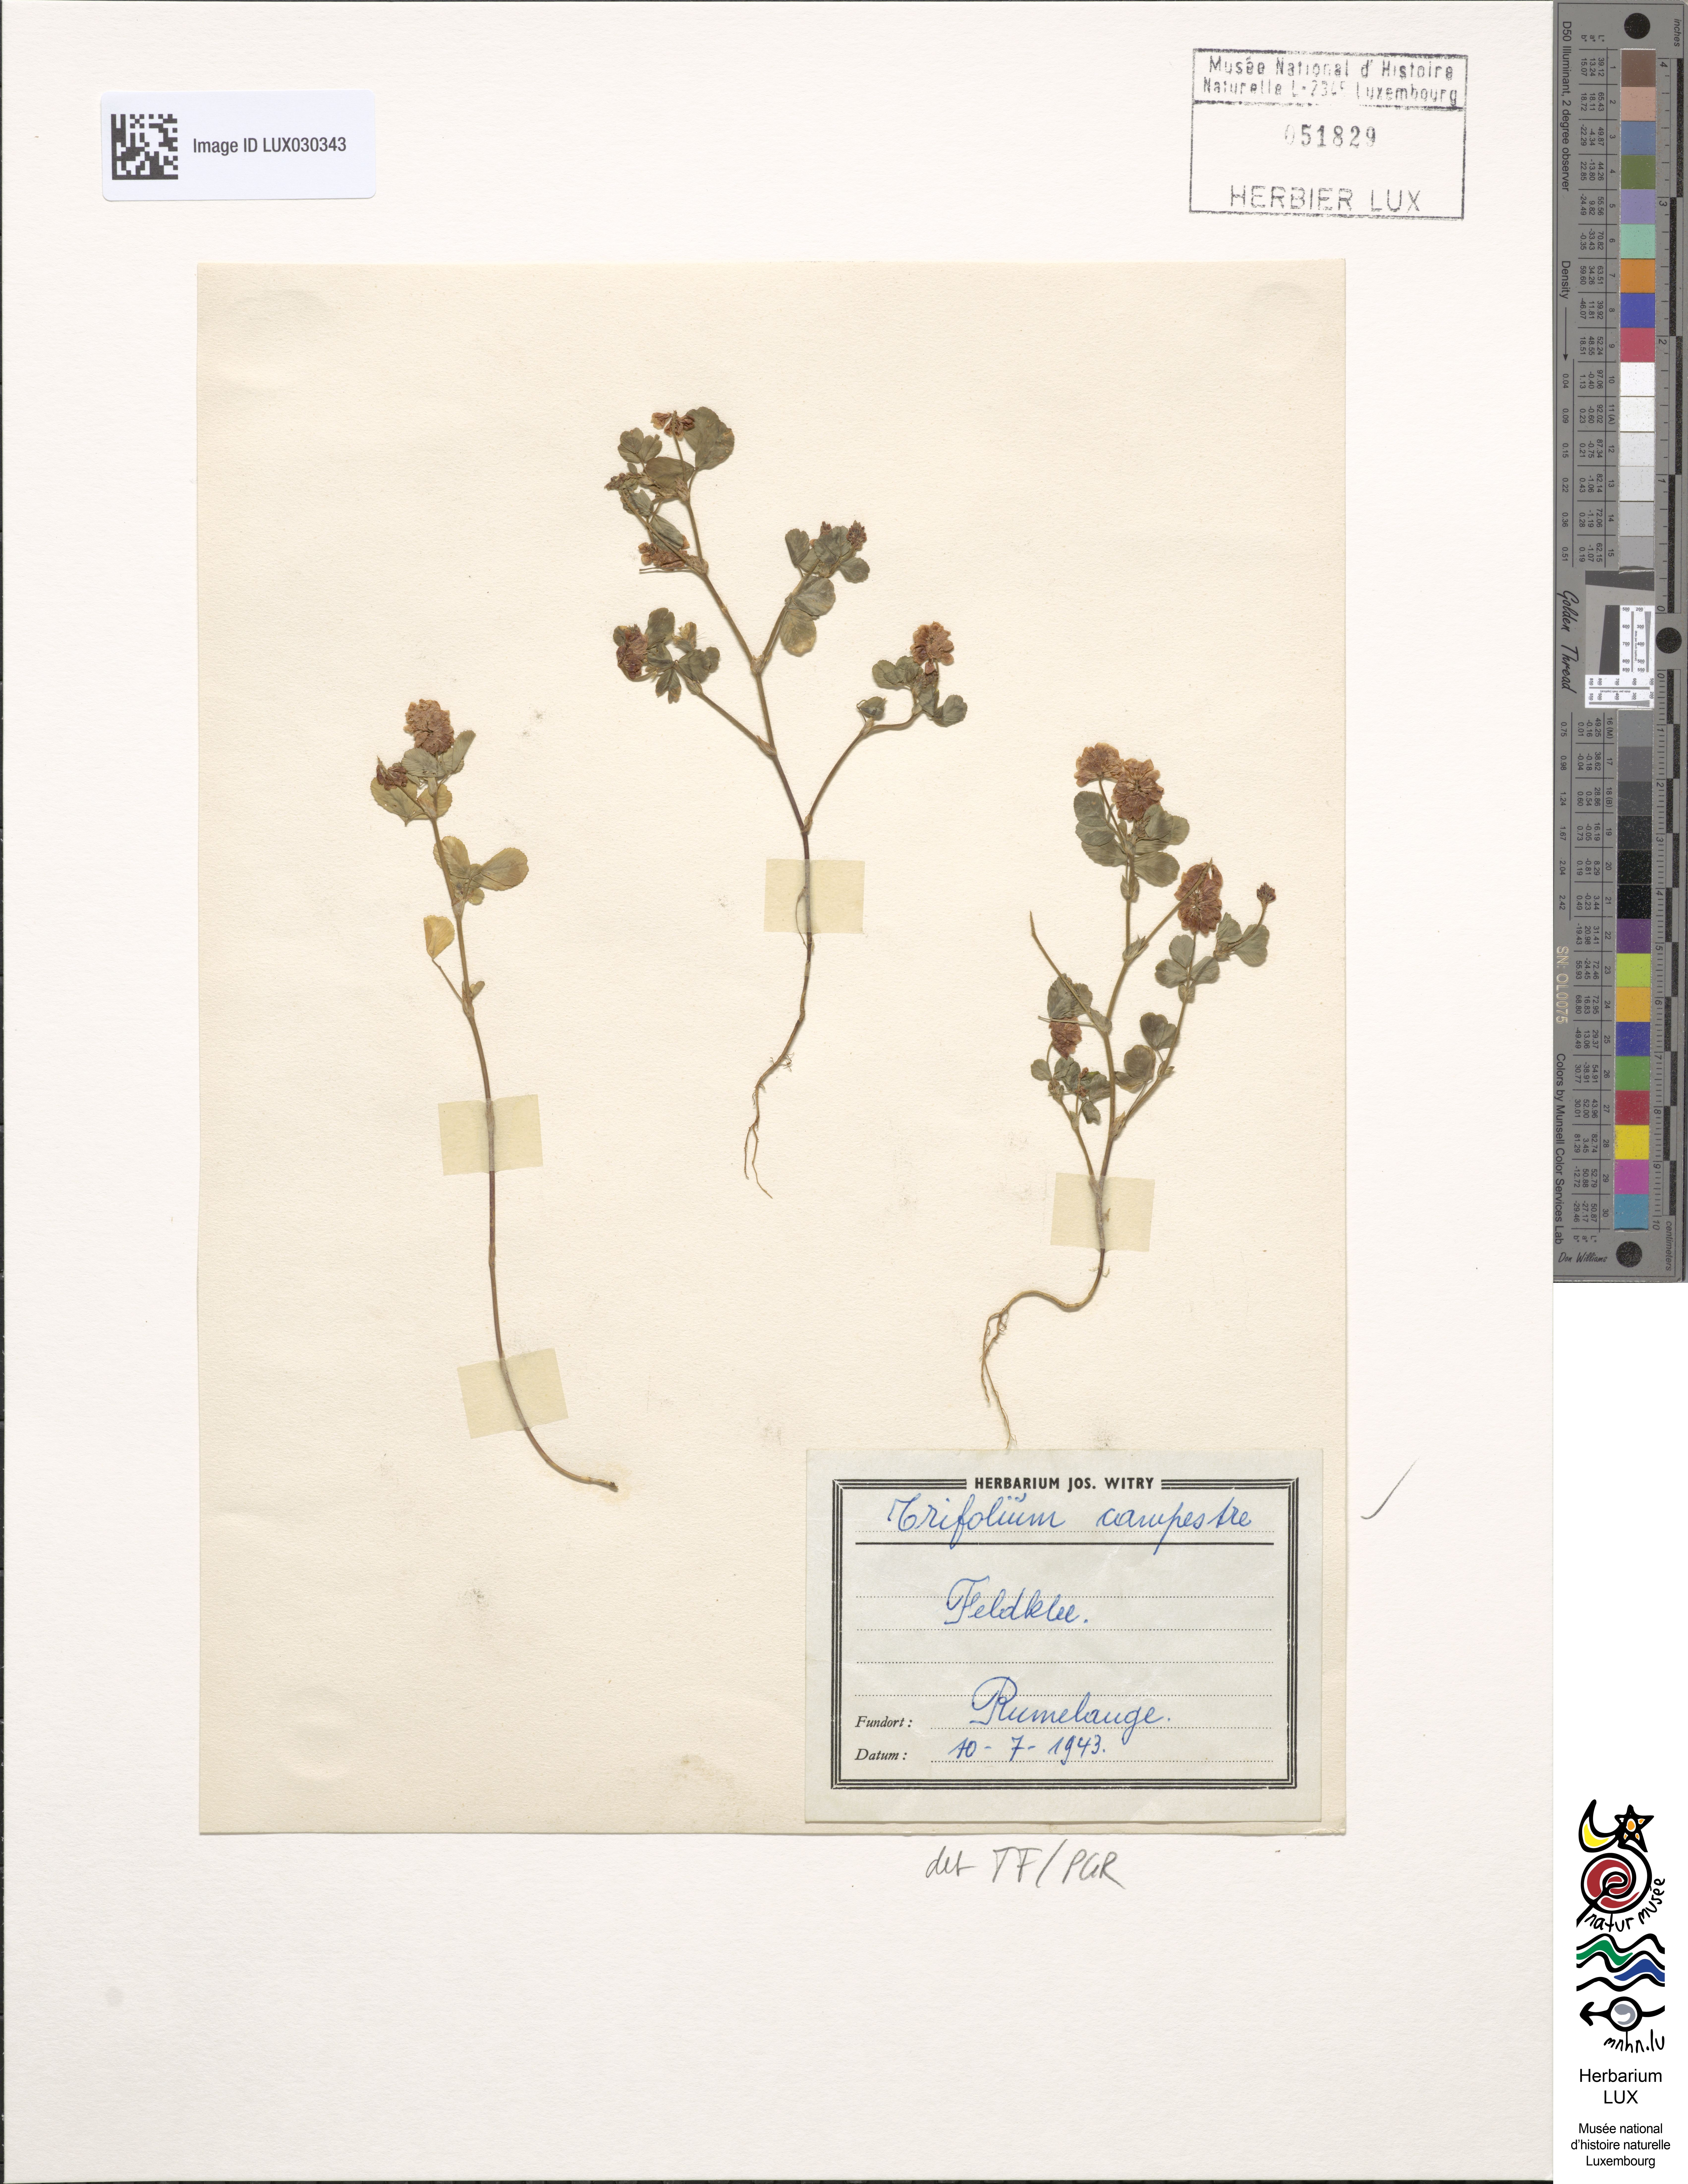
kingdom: Plantae
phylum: Tracheophyta
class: Magnoliopsida
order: Fabales
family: Fabaceae
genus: Trifolium
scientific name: Trifolium campestre
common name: Field clover
